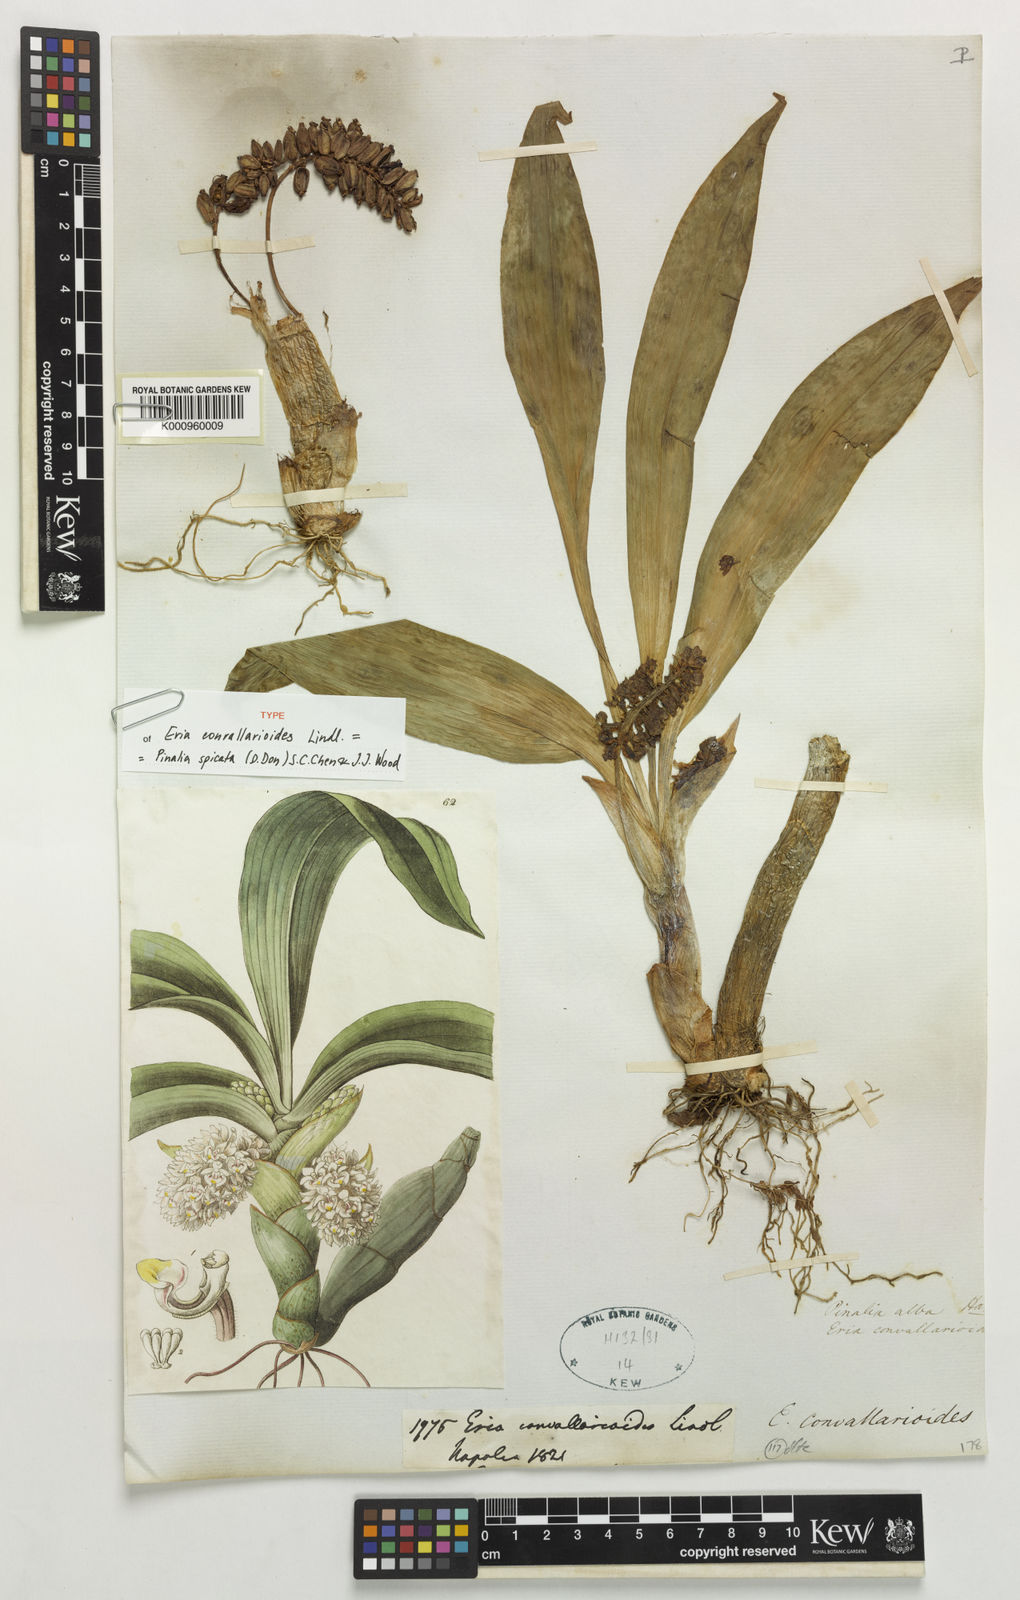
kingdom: Plantae
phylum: Tracheophyta
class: Liliopsida
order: Asparagales
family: Orchidaceae
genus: Pinalia
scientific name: Pinalia spicata
